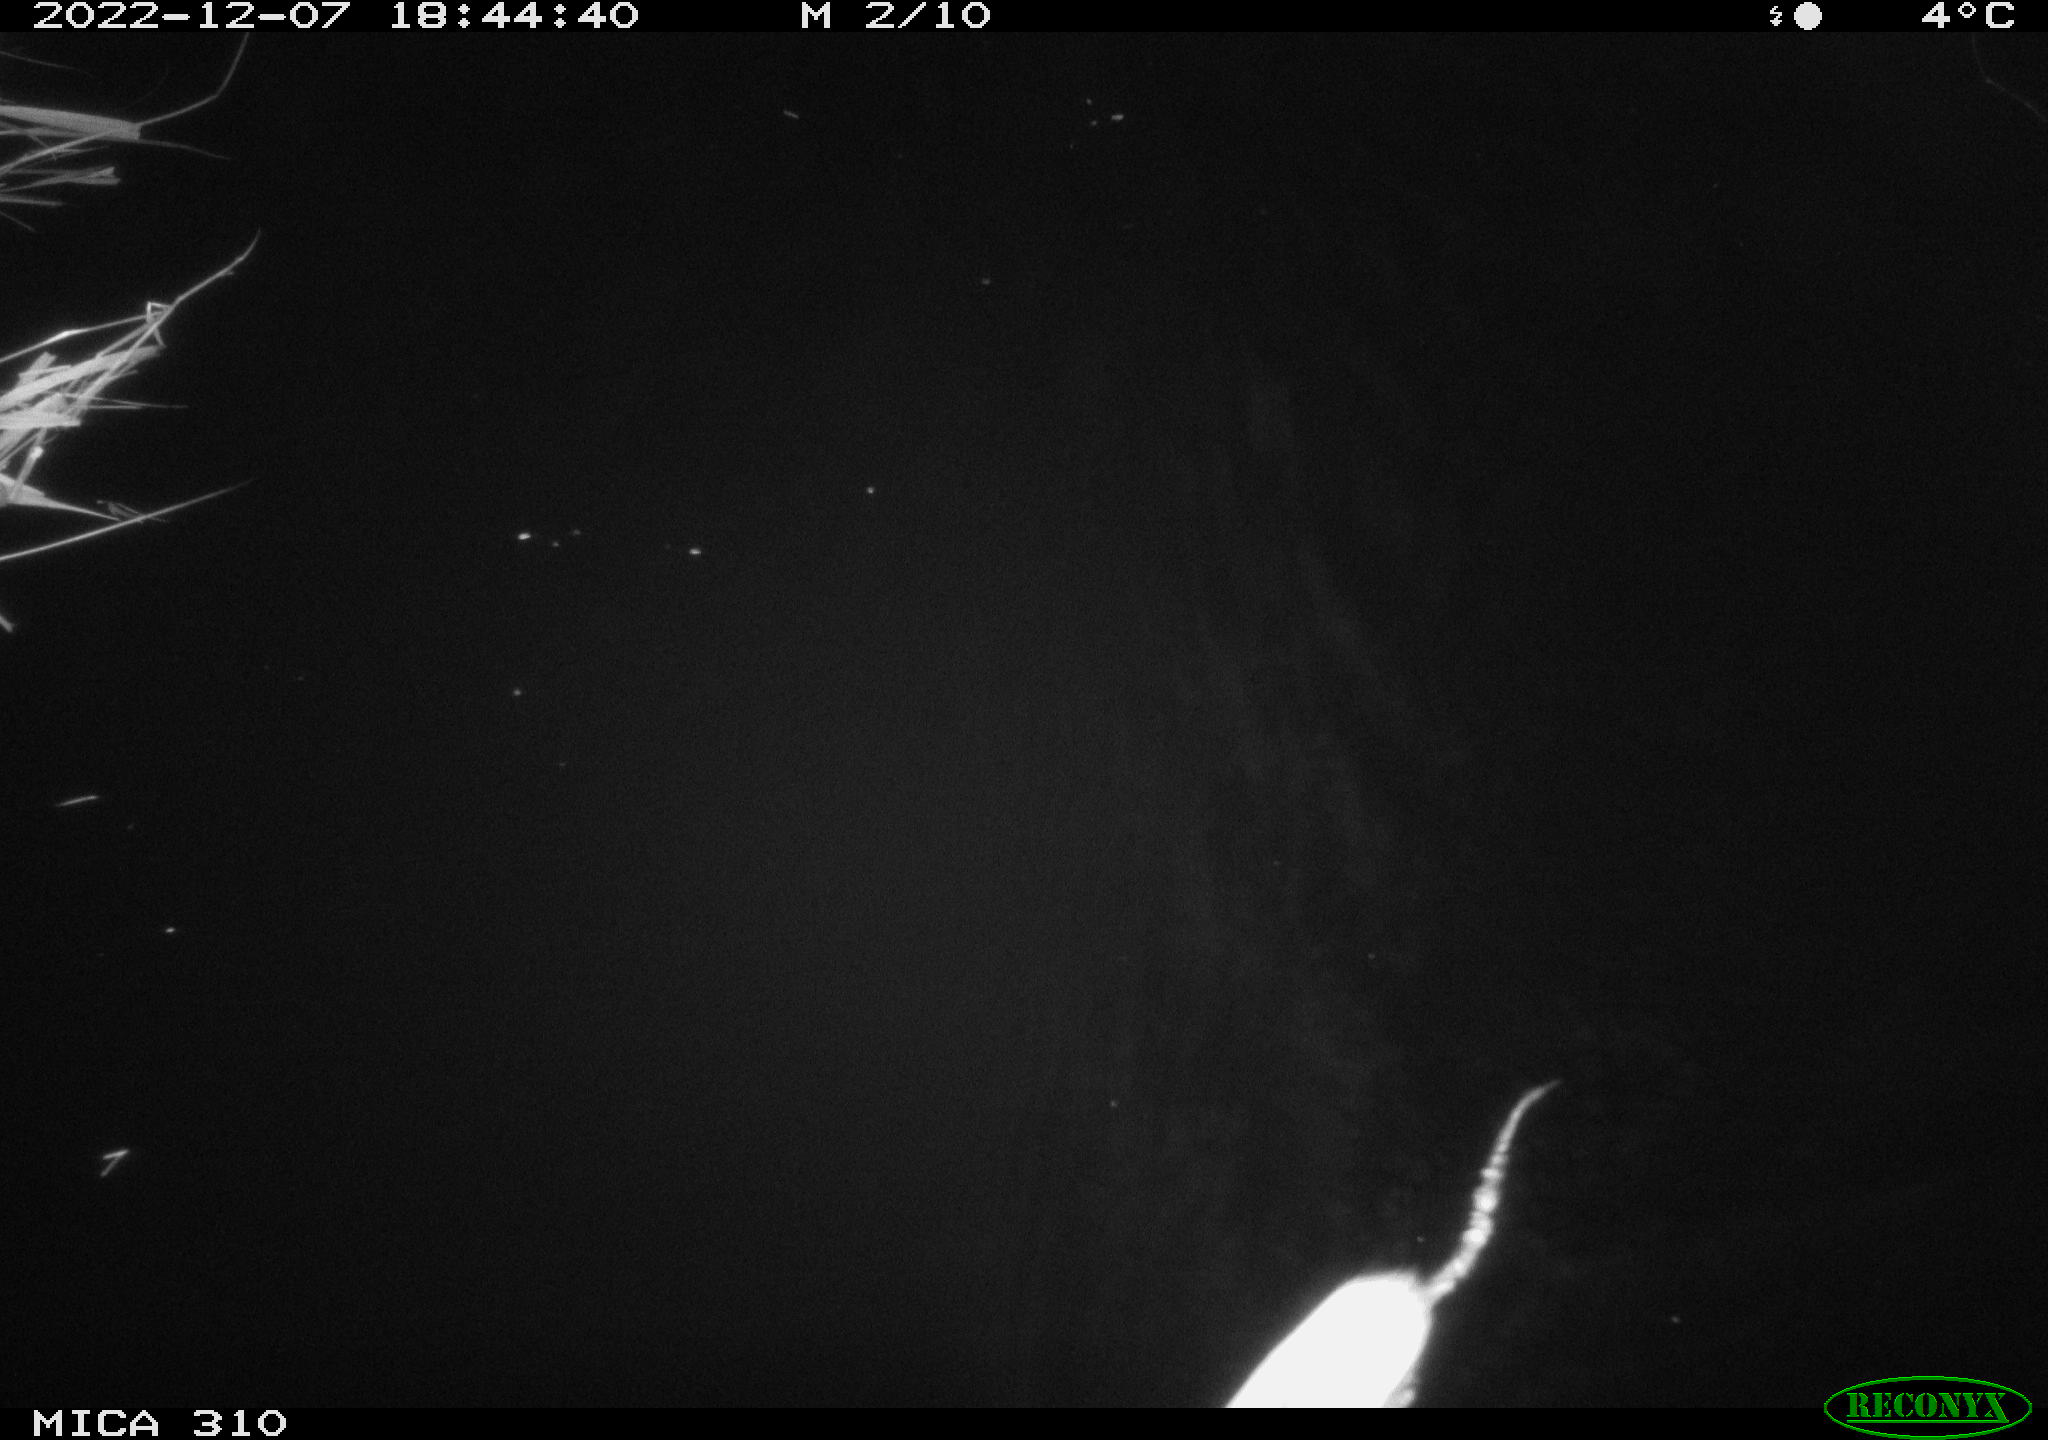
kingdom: Animalia
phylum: Chordata
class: Mammalia
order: Rodentia
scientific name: Rodentia
